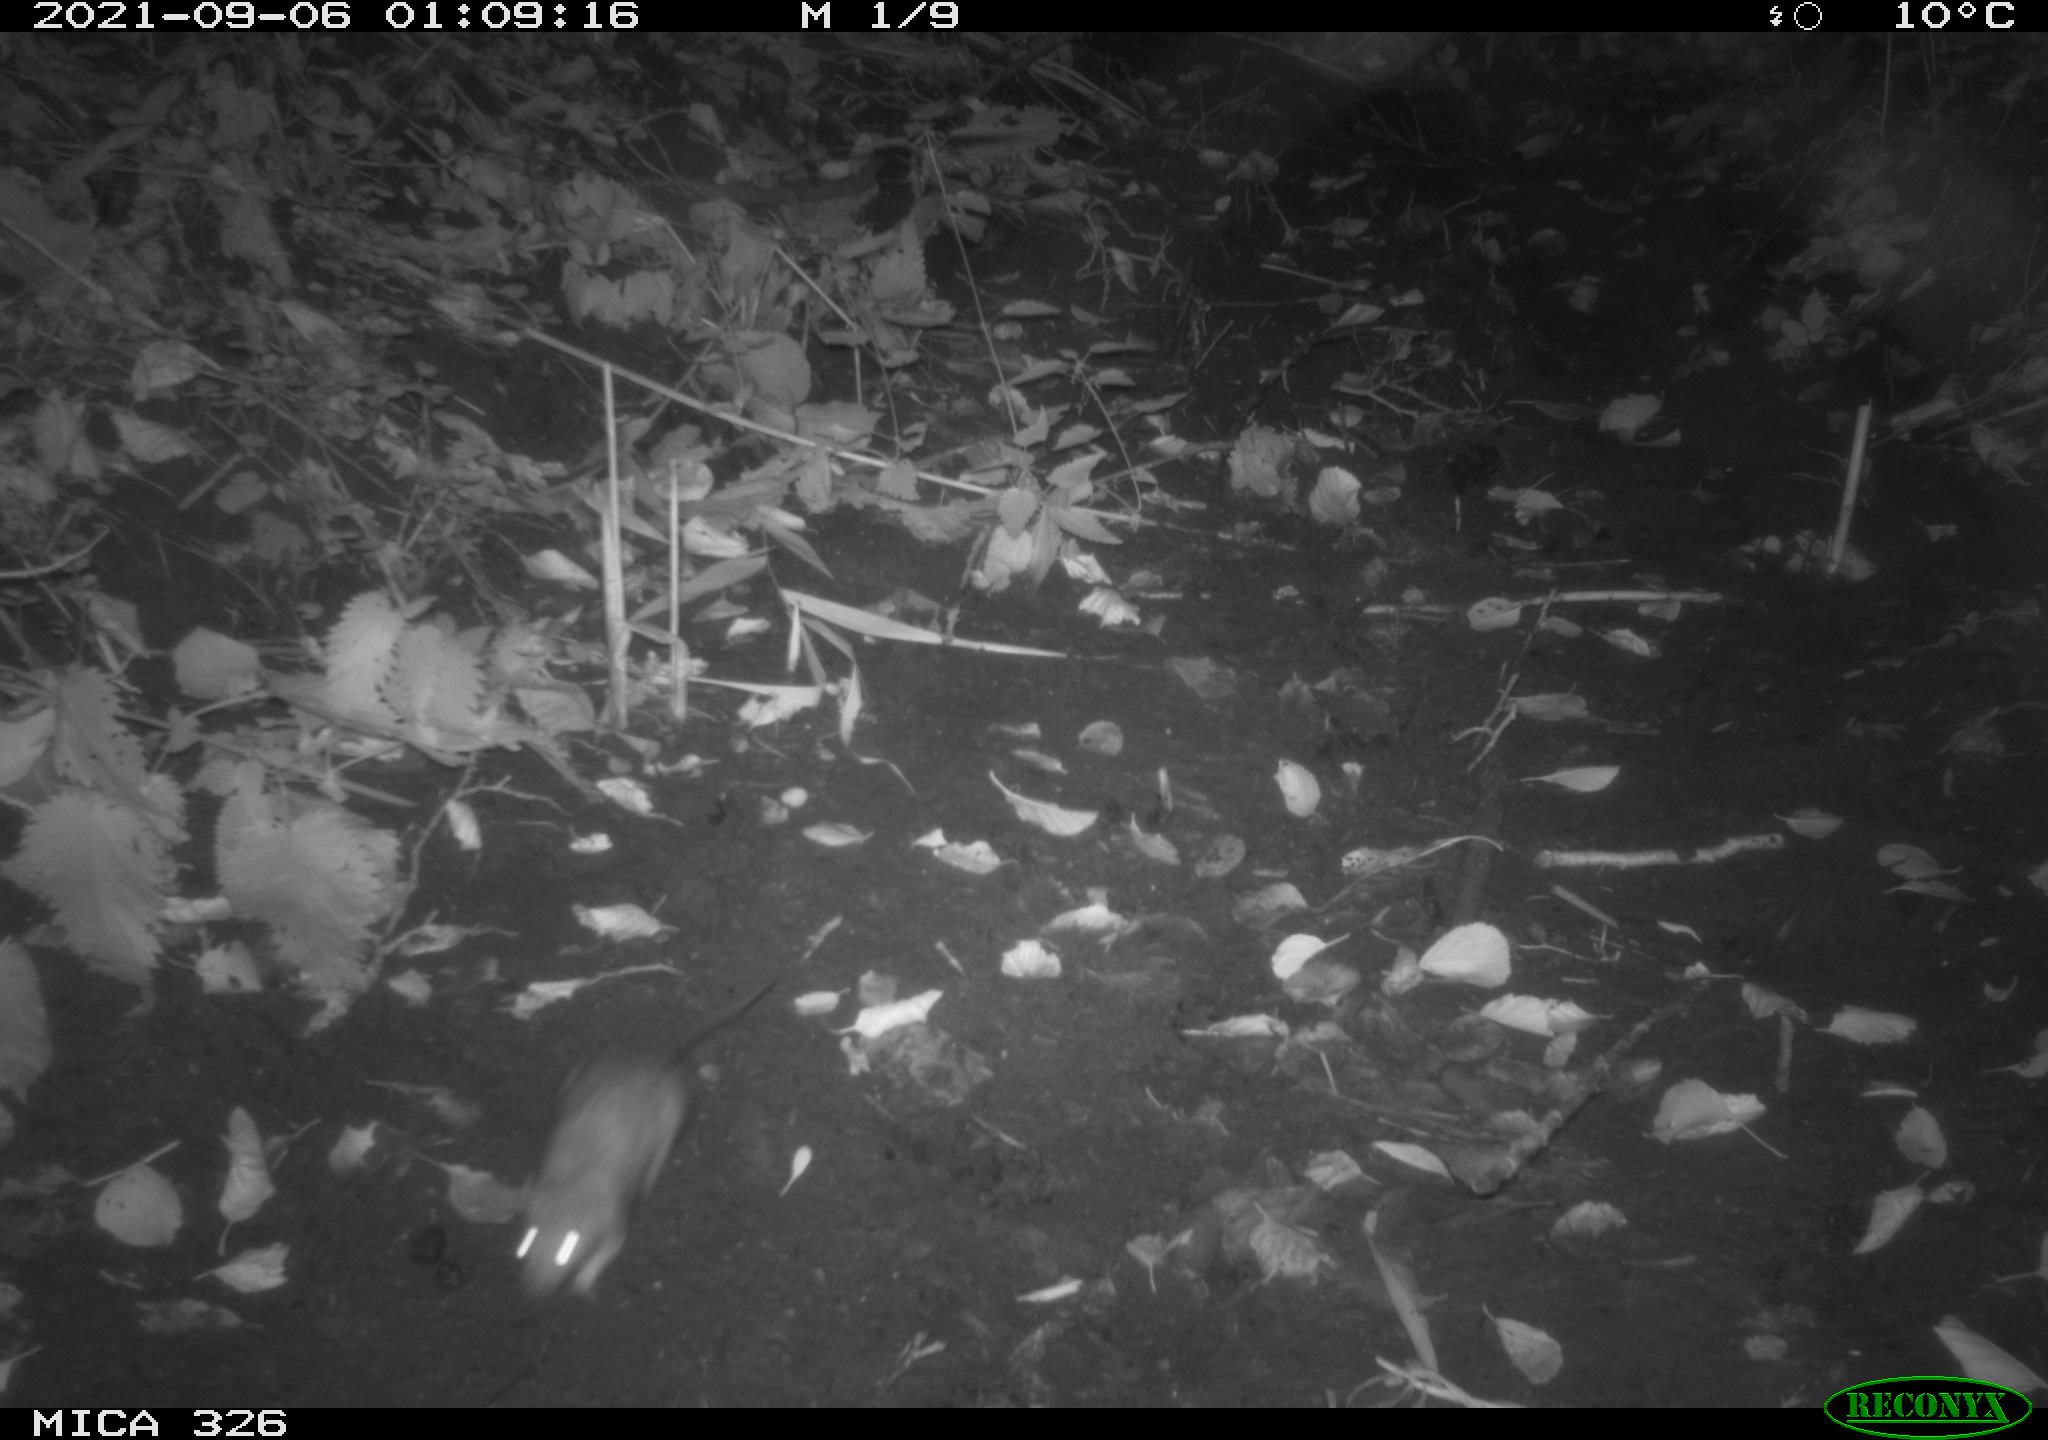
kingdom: Animalia
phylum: Chordata
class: Mammalia
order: Rodentia
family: Muridae
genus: Rattus
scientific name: Rattus norvegicus
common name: Brown rat
